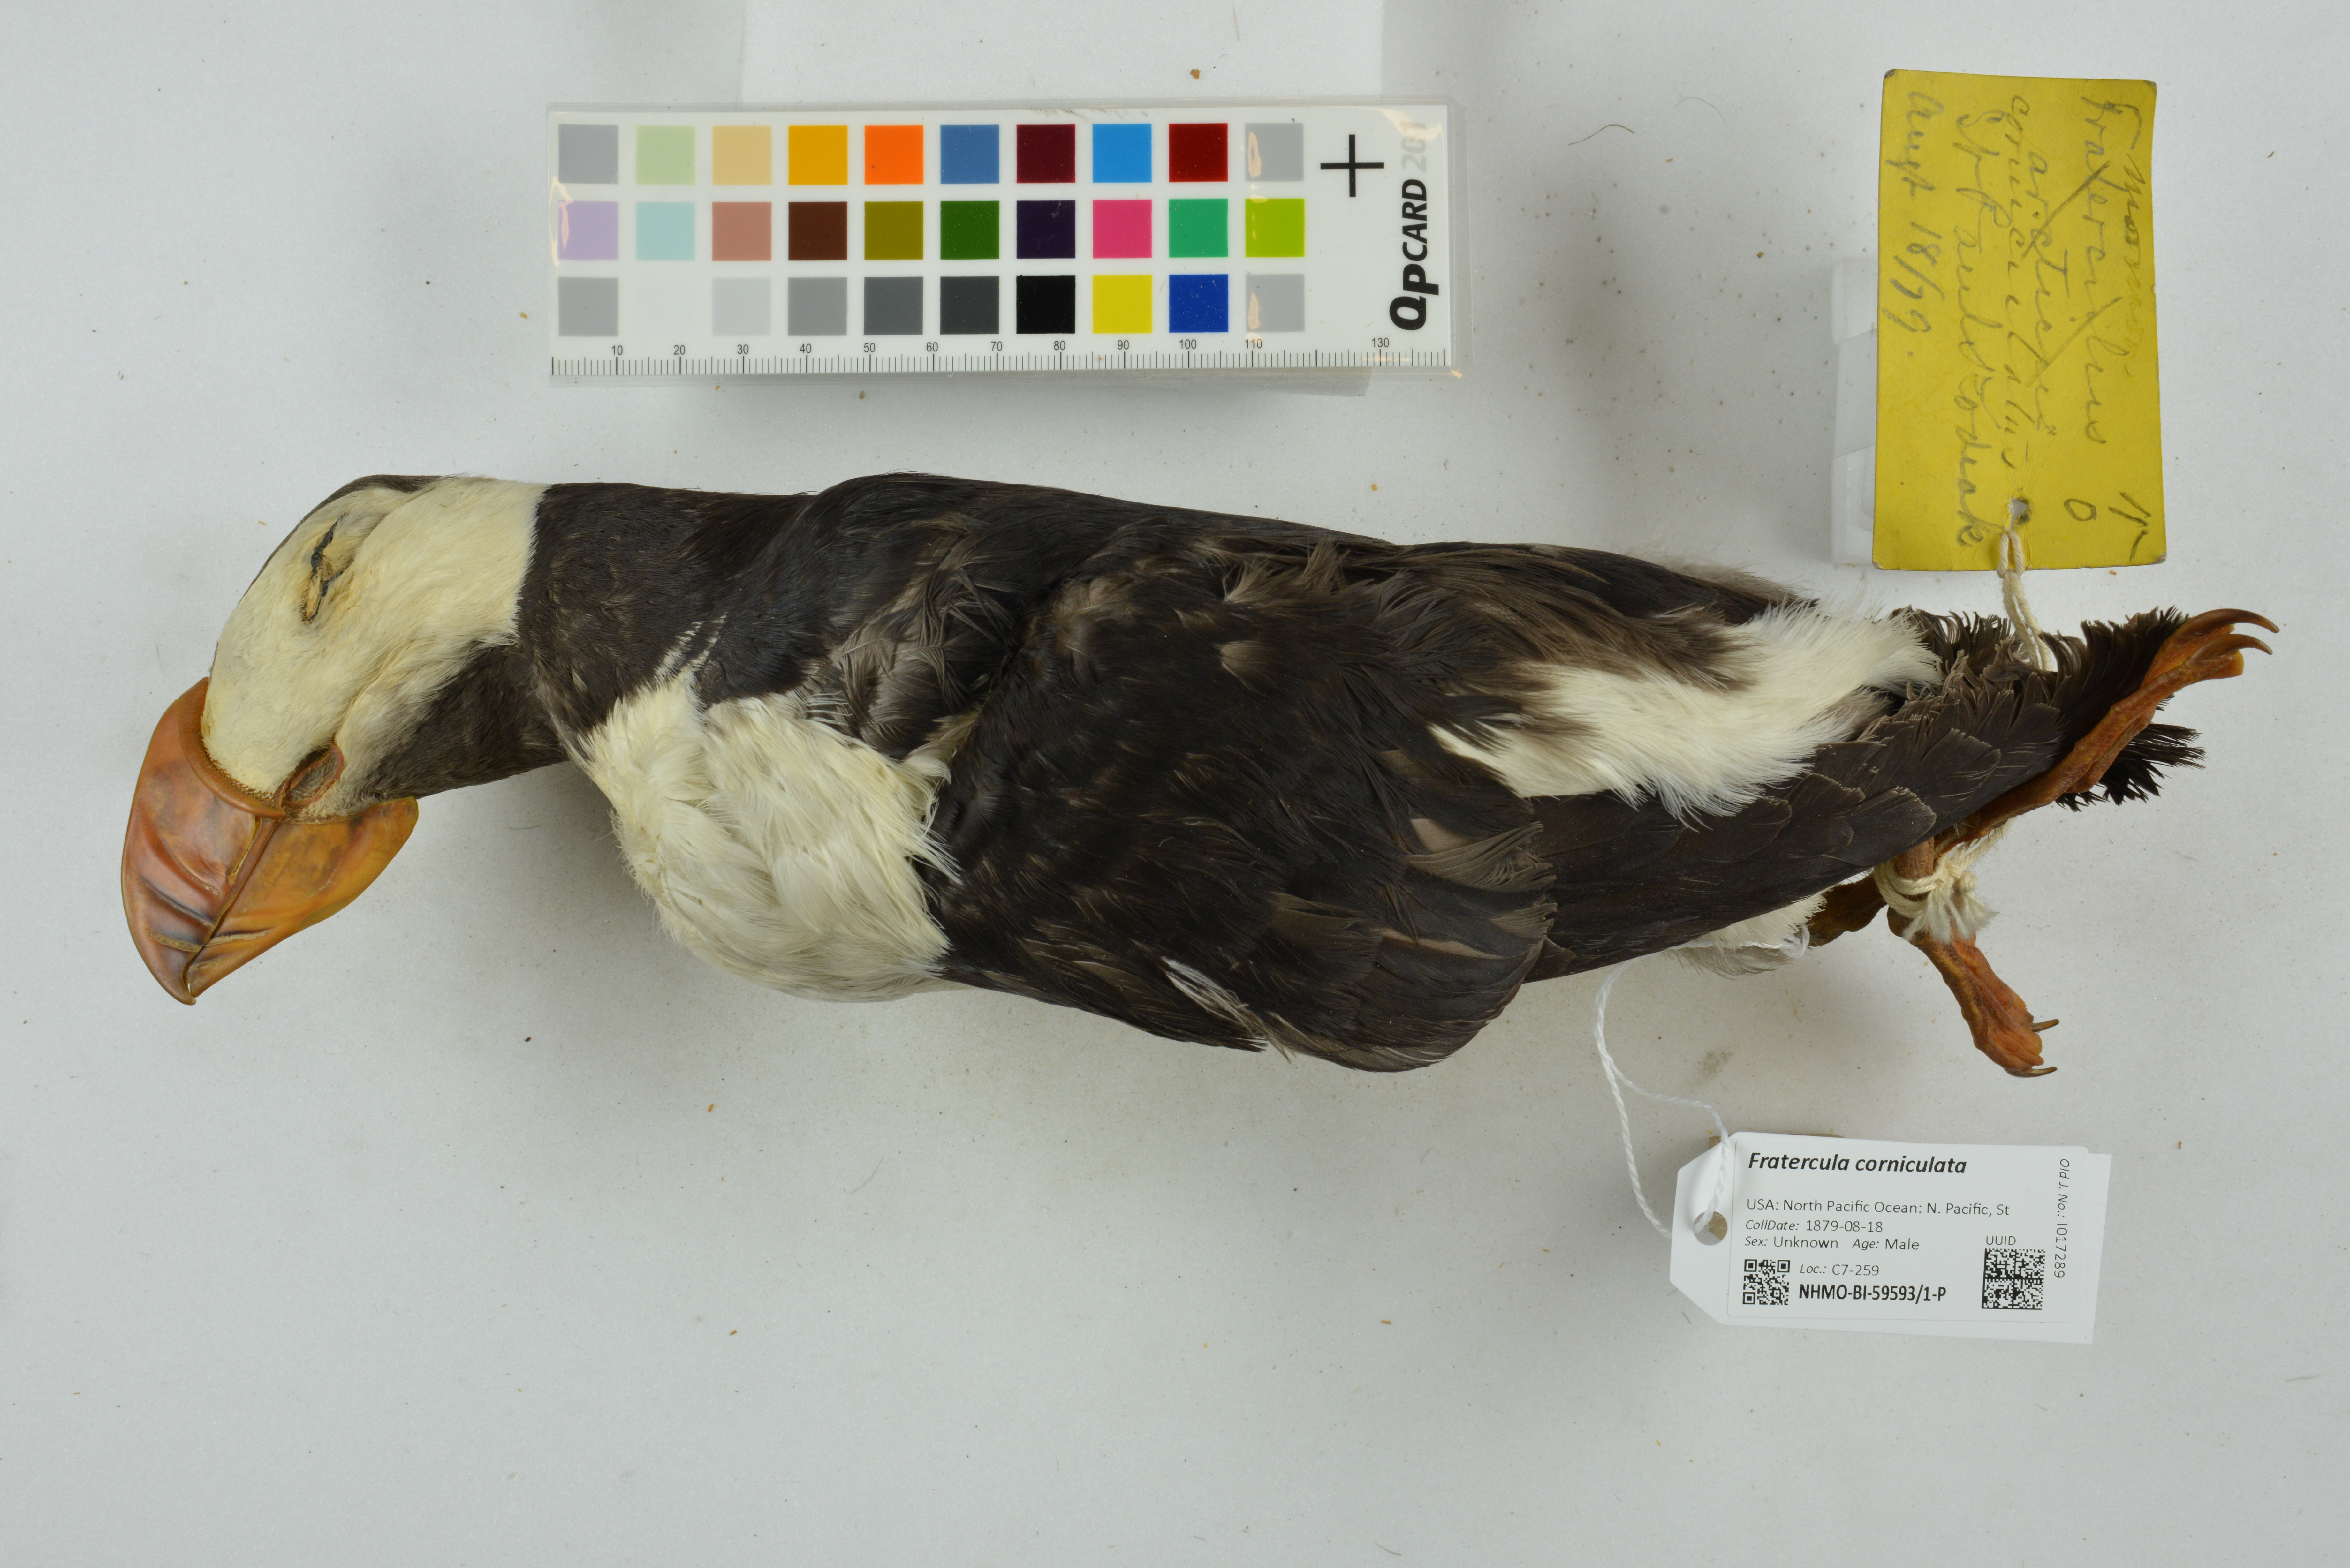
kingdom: Animalia
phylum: Chordata
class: Aves
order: Charadriiformes
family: Alcidae
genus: Fratercula
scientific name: Fratercula corniculata
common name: Horned puffin
